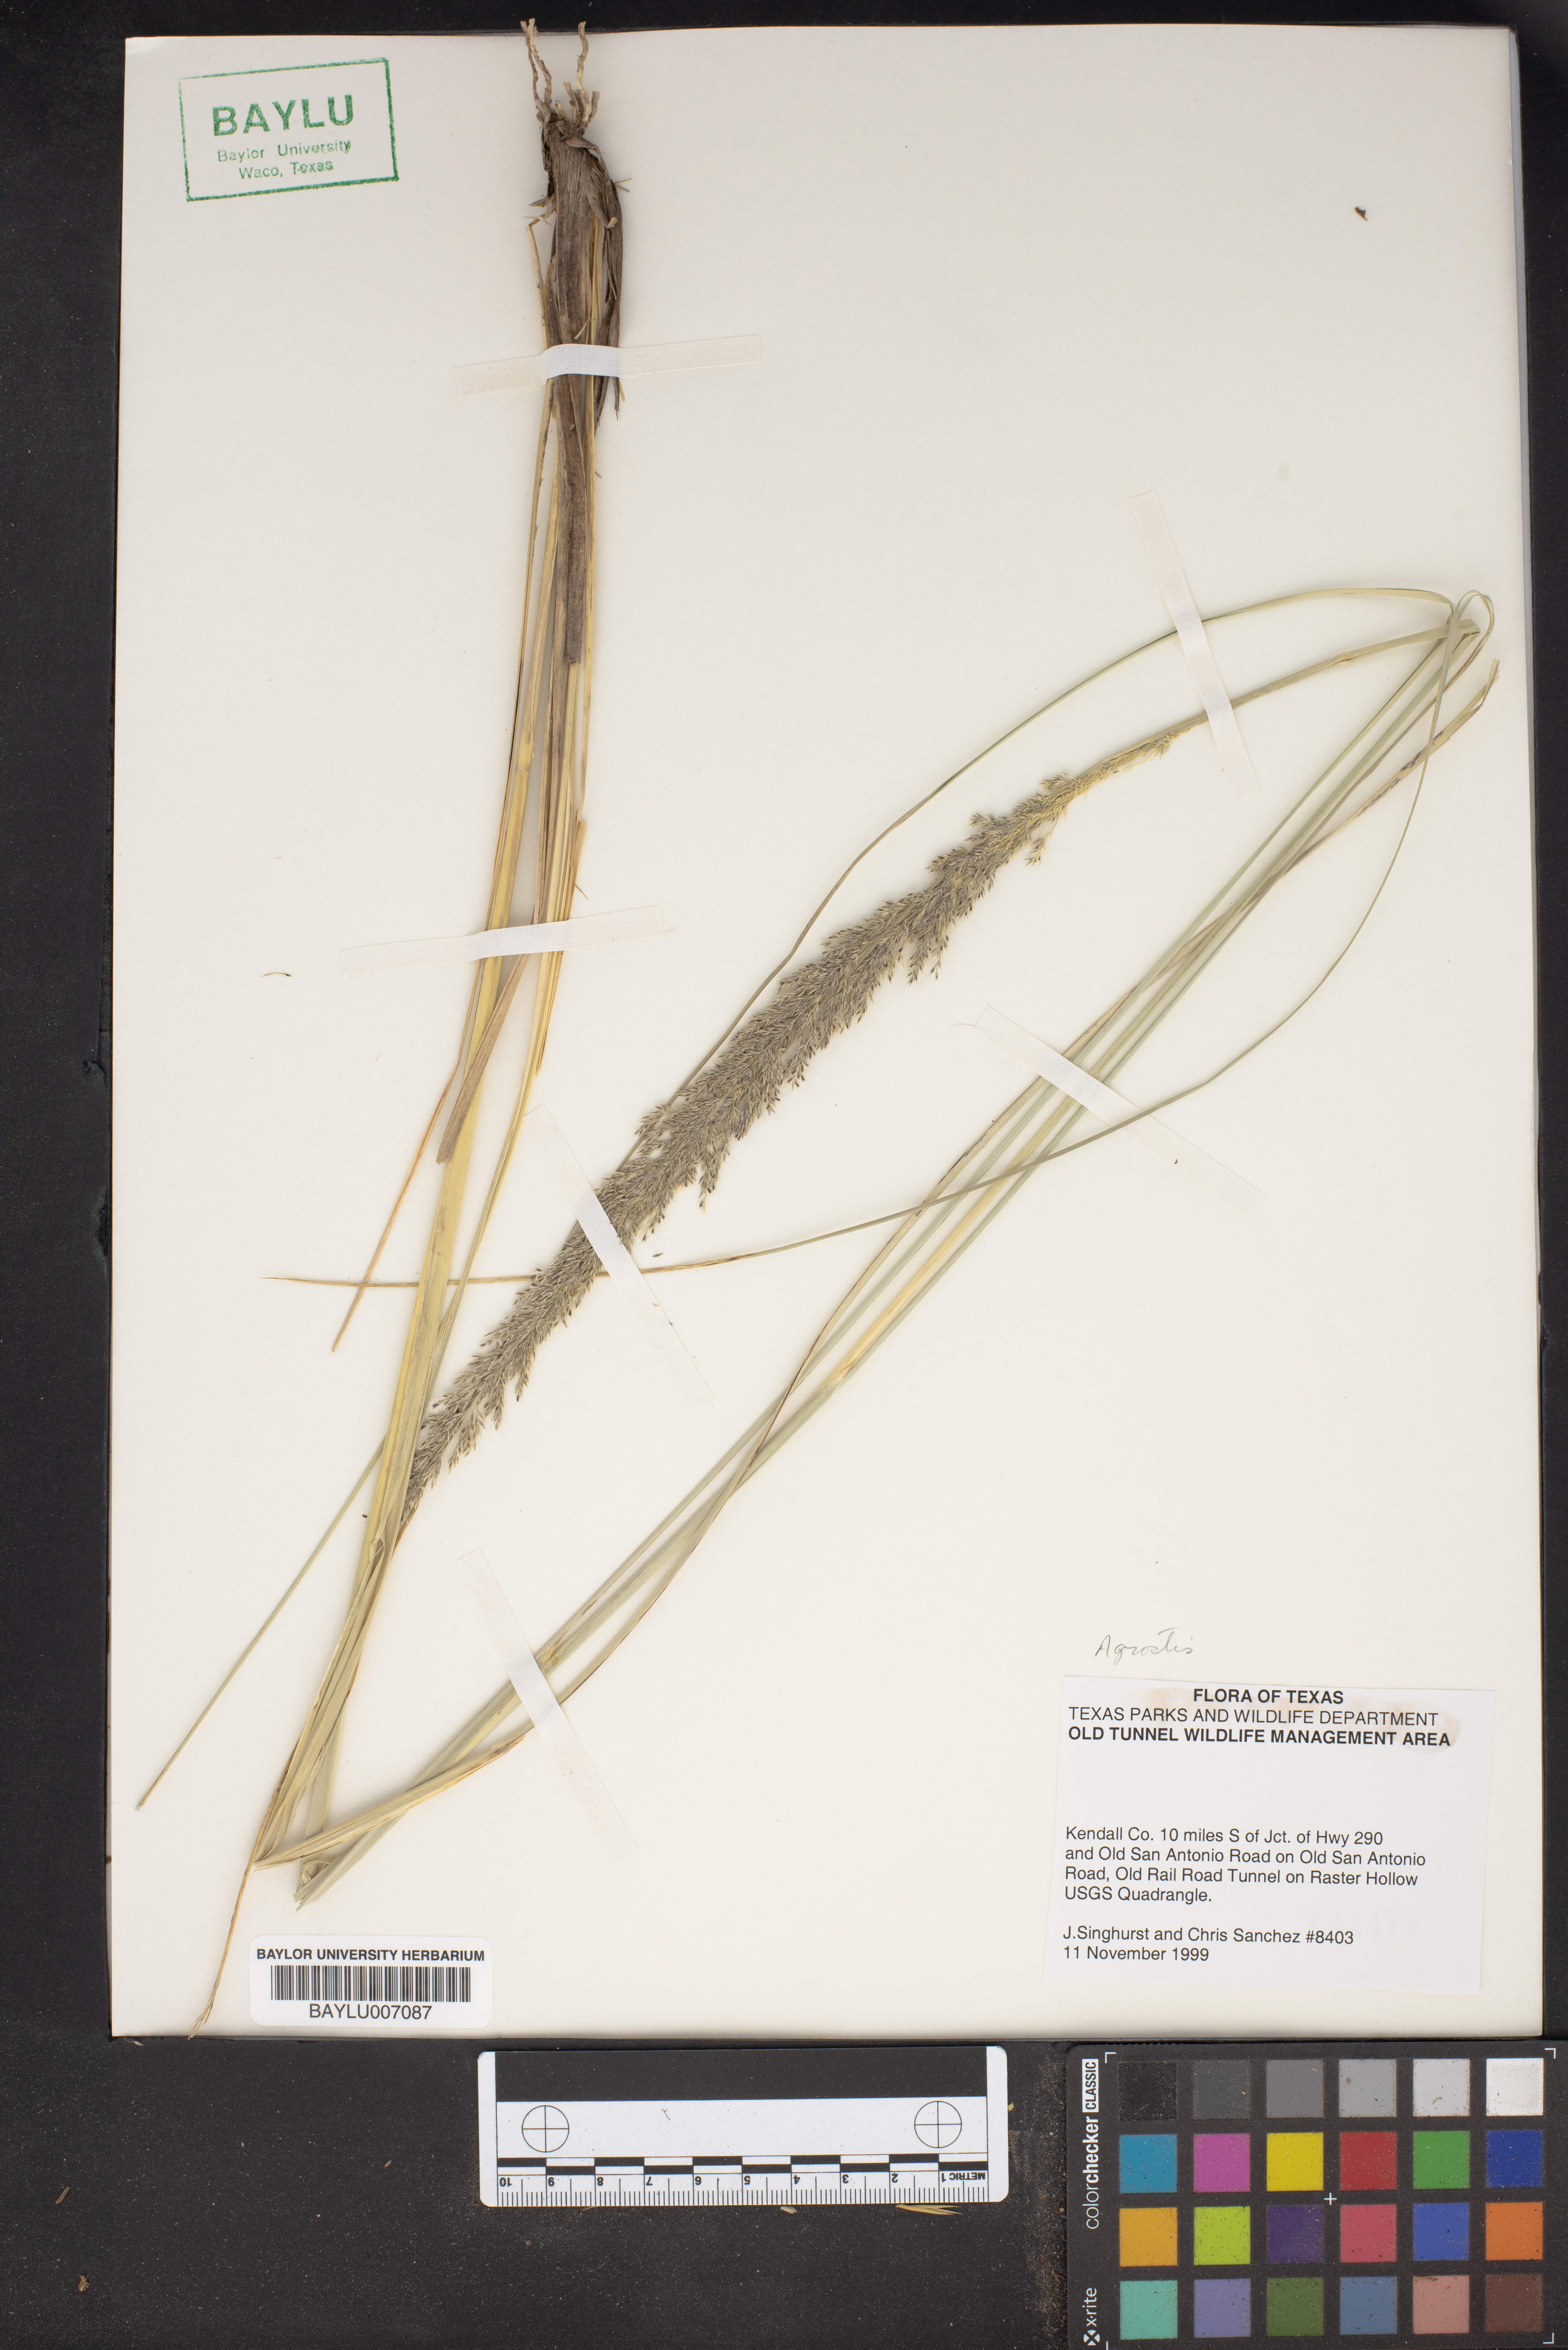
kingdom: Plantae
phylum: Tracheophyta
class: Liliopsida
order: Poales
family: Poaceae
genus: Polypogon
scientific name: Polypogon viridis
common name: Water bent
